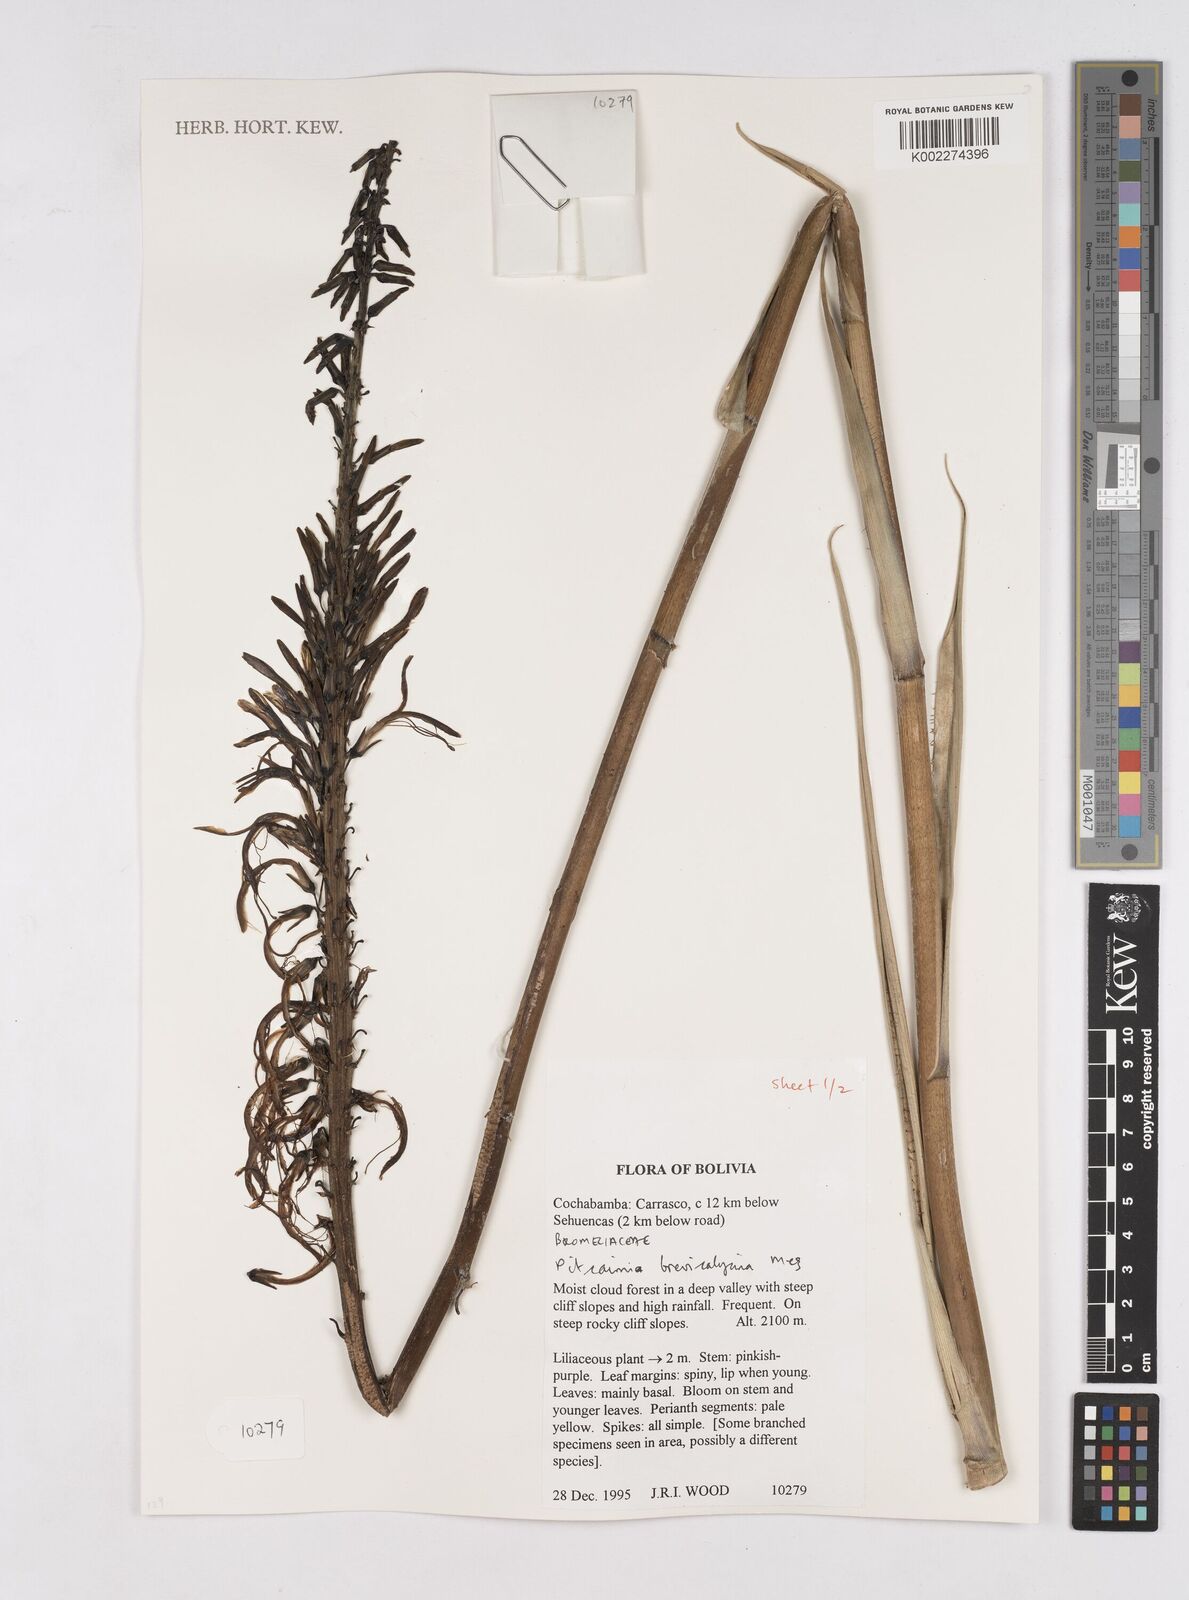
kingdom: Plantae
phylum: Tracheophyta
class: Liliopsida
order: Poales
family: Bromeliaceae
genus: Pitcairnia
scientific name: Pitcairnia brevicalycina
